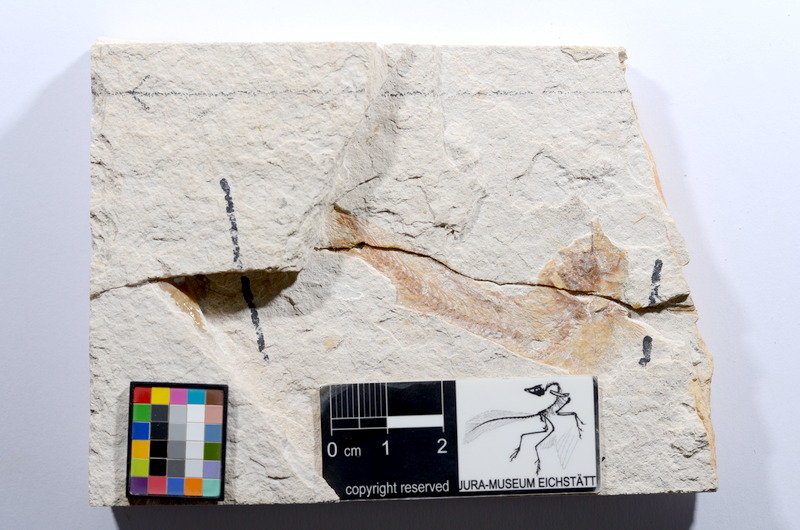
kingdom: Animalia
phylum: Chordata
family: Ascalaboidae
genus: Tharsis
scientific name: Tharsis dubius
